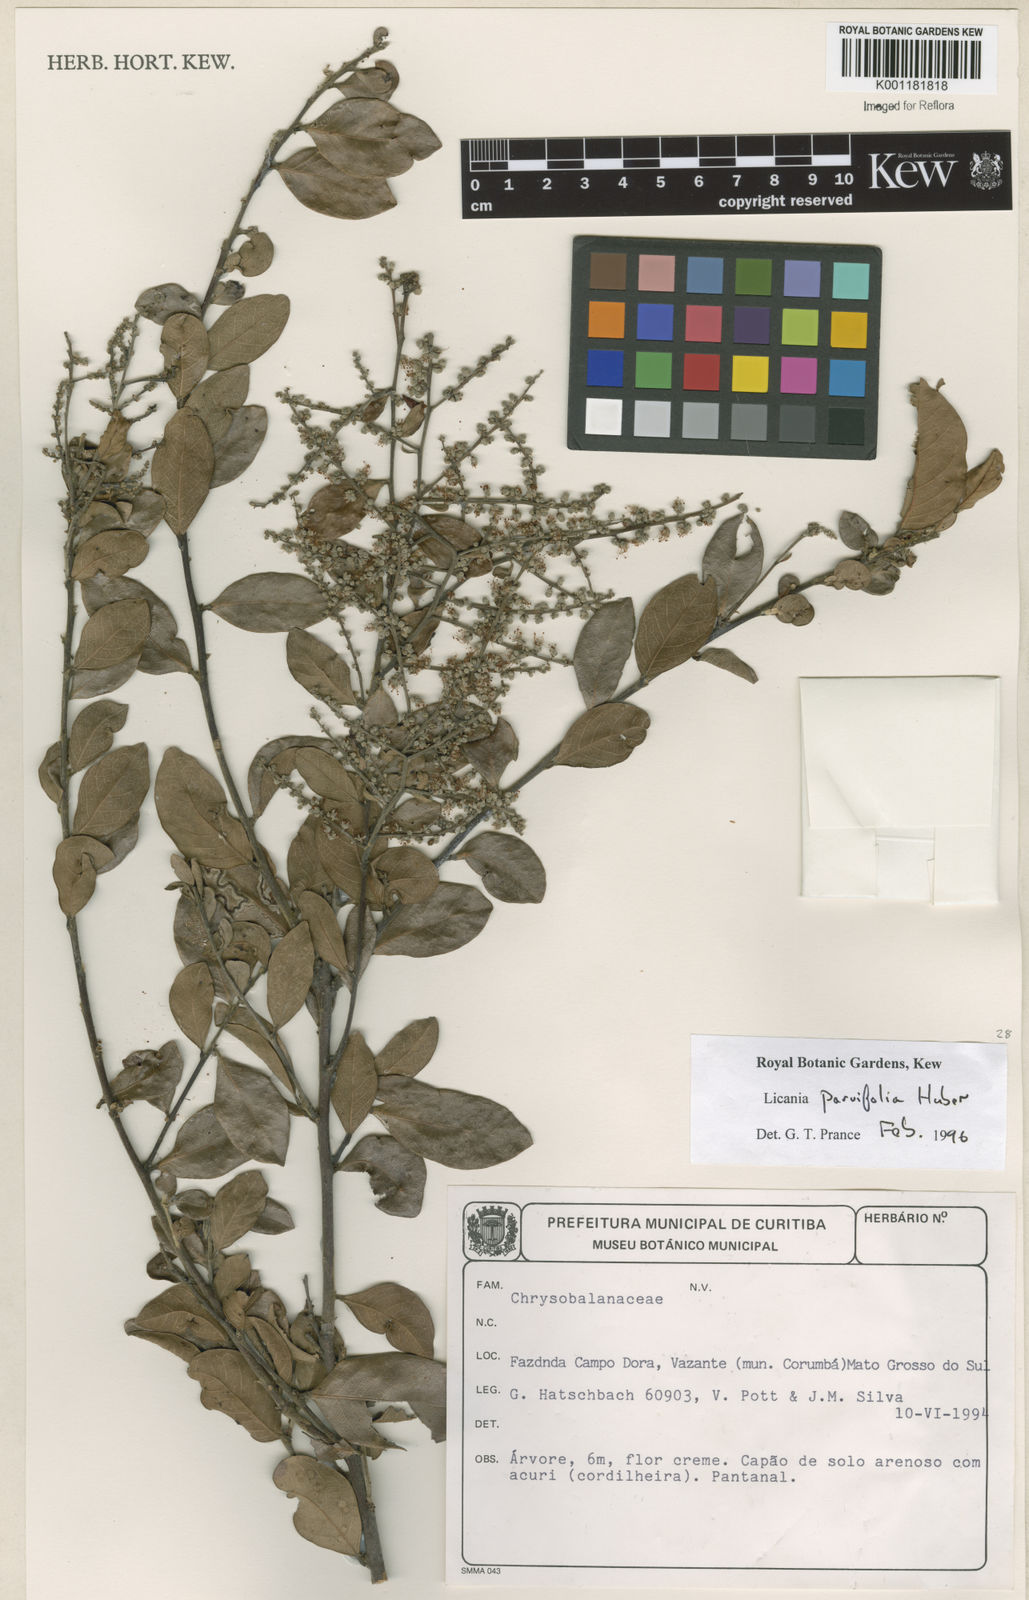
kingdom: Plantae
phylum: Tracheophyta
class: Magnoliopsida
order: Malpighiales
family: Chrysobalanaceae
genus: Licania
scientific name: Licania parvifolia
